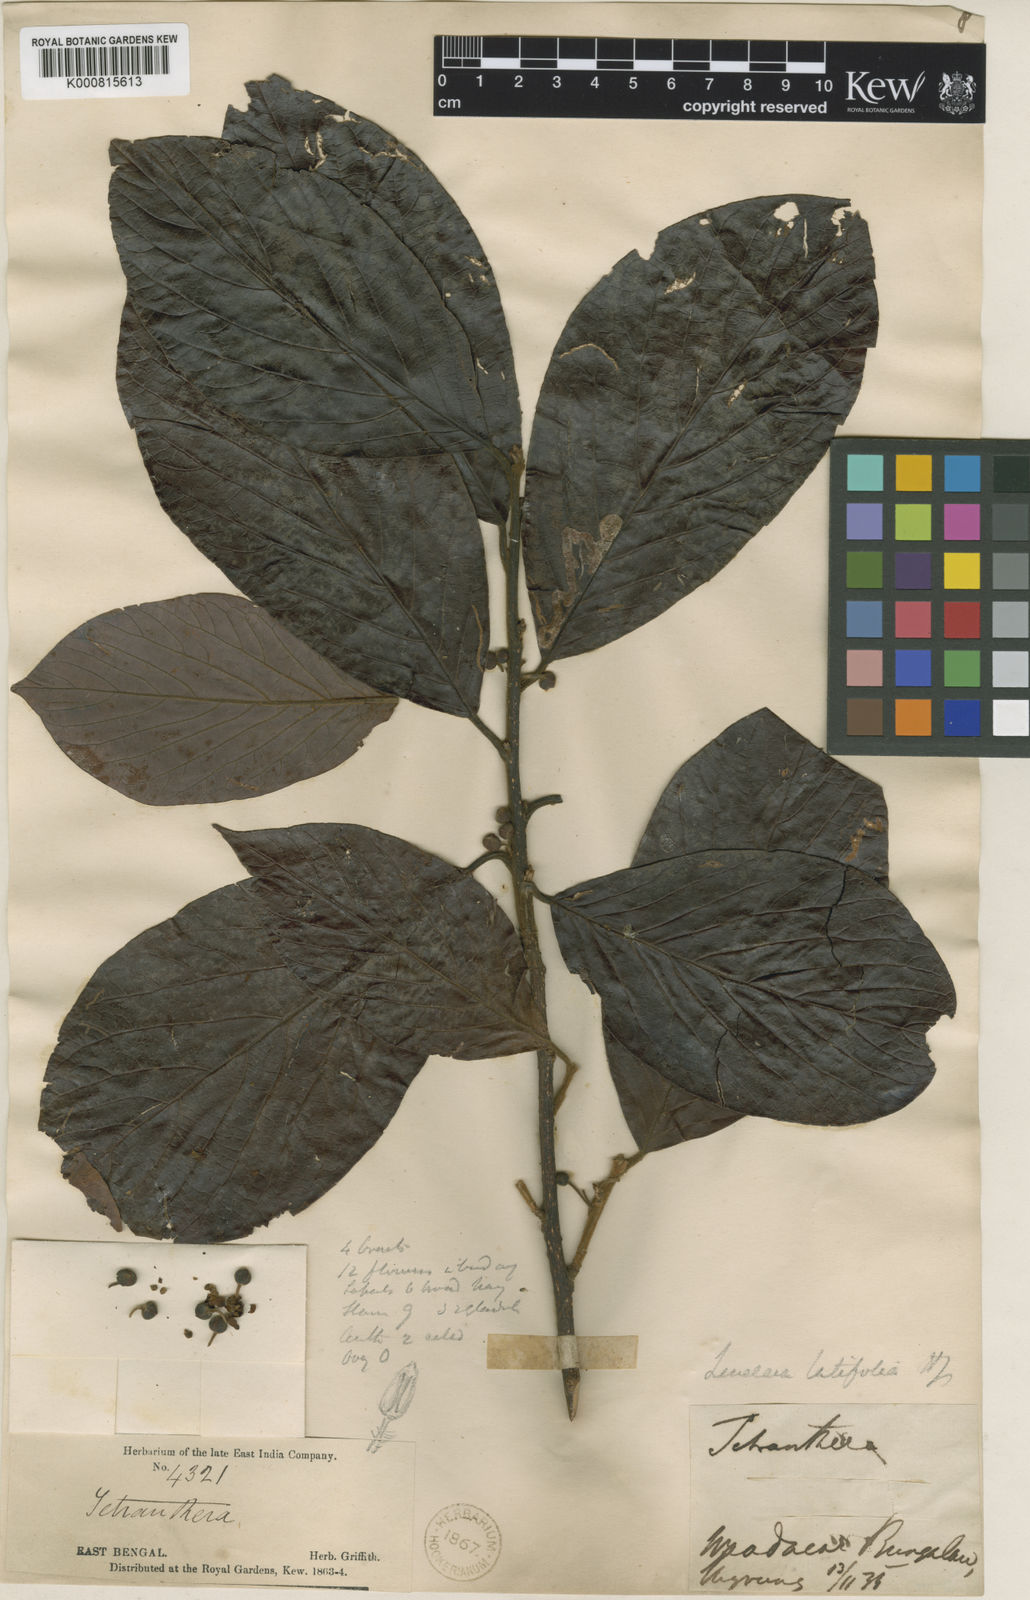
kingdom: Plantae
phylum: Tracheophyta
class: Magnoliopsida
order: Laurales
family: Lauraceae
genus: Lindera
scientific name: Lindera latifolia
